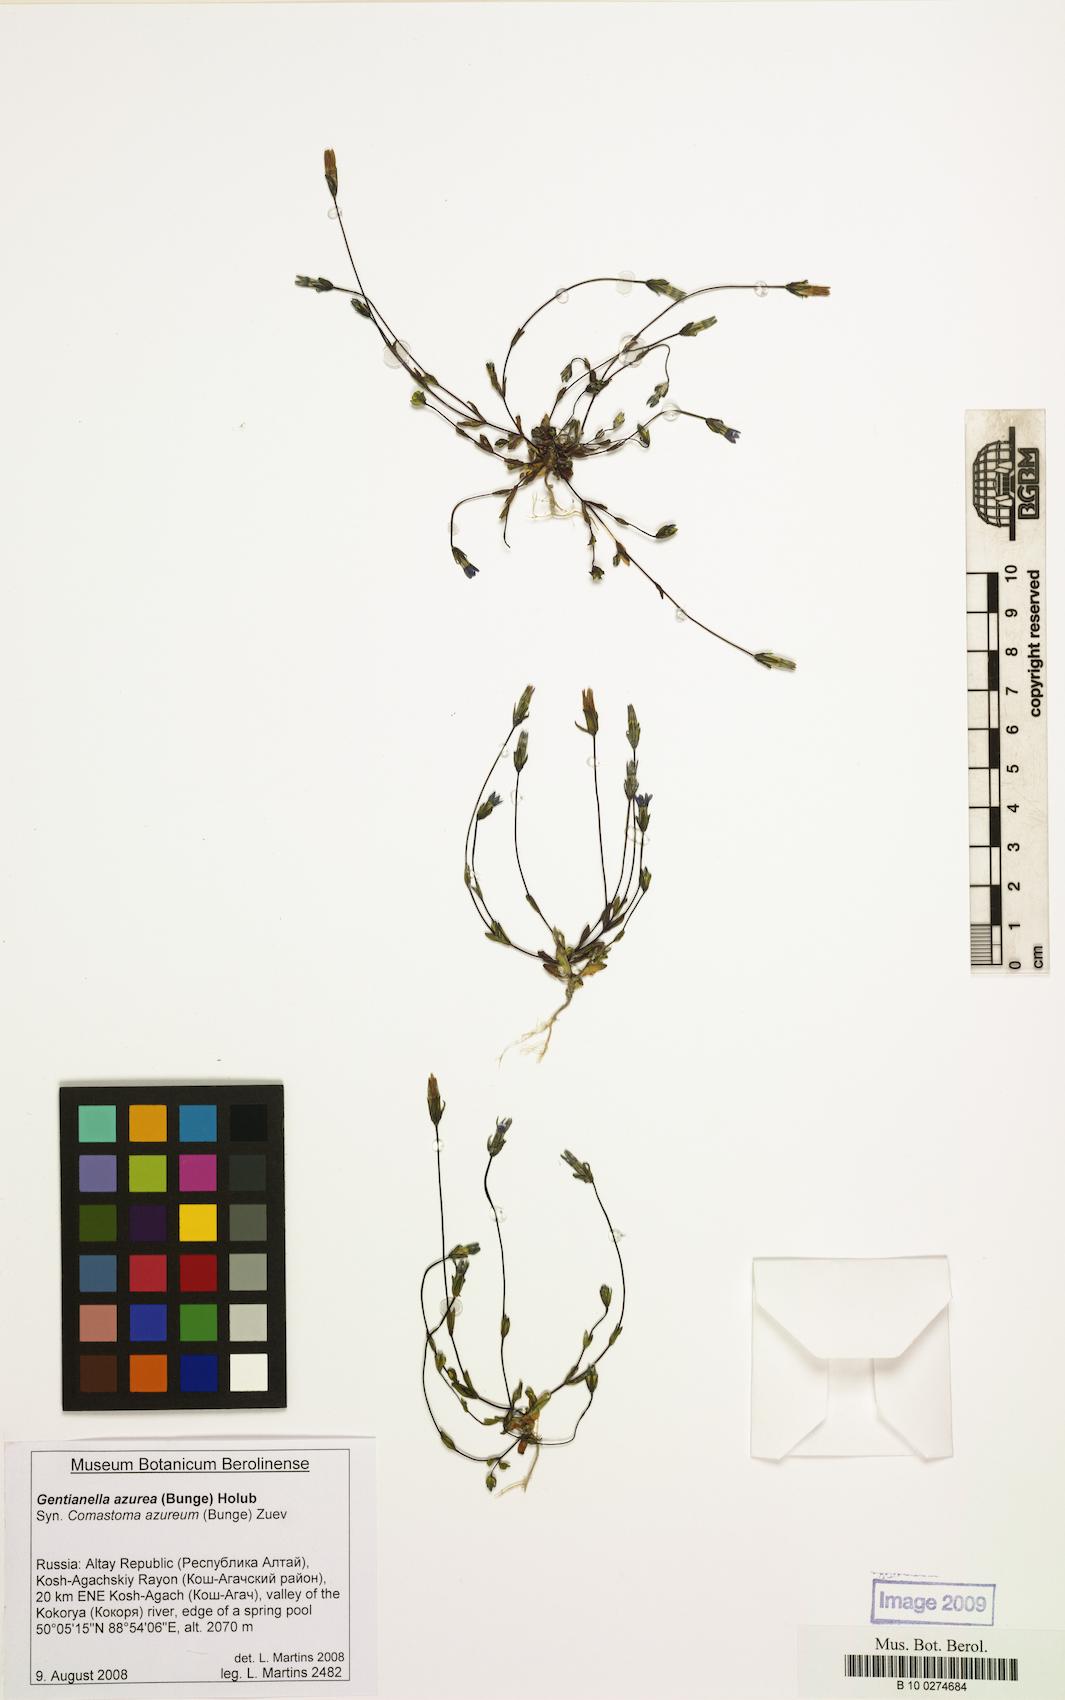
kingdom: Plantae
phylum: Tracheophyta
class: Magnoliopsida
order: Gentianales
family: Gentianaceae
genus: Gentianella
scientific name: Gentianella azurea
